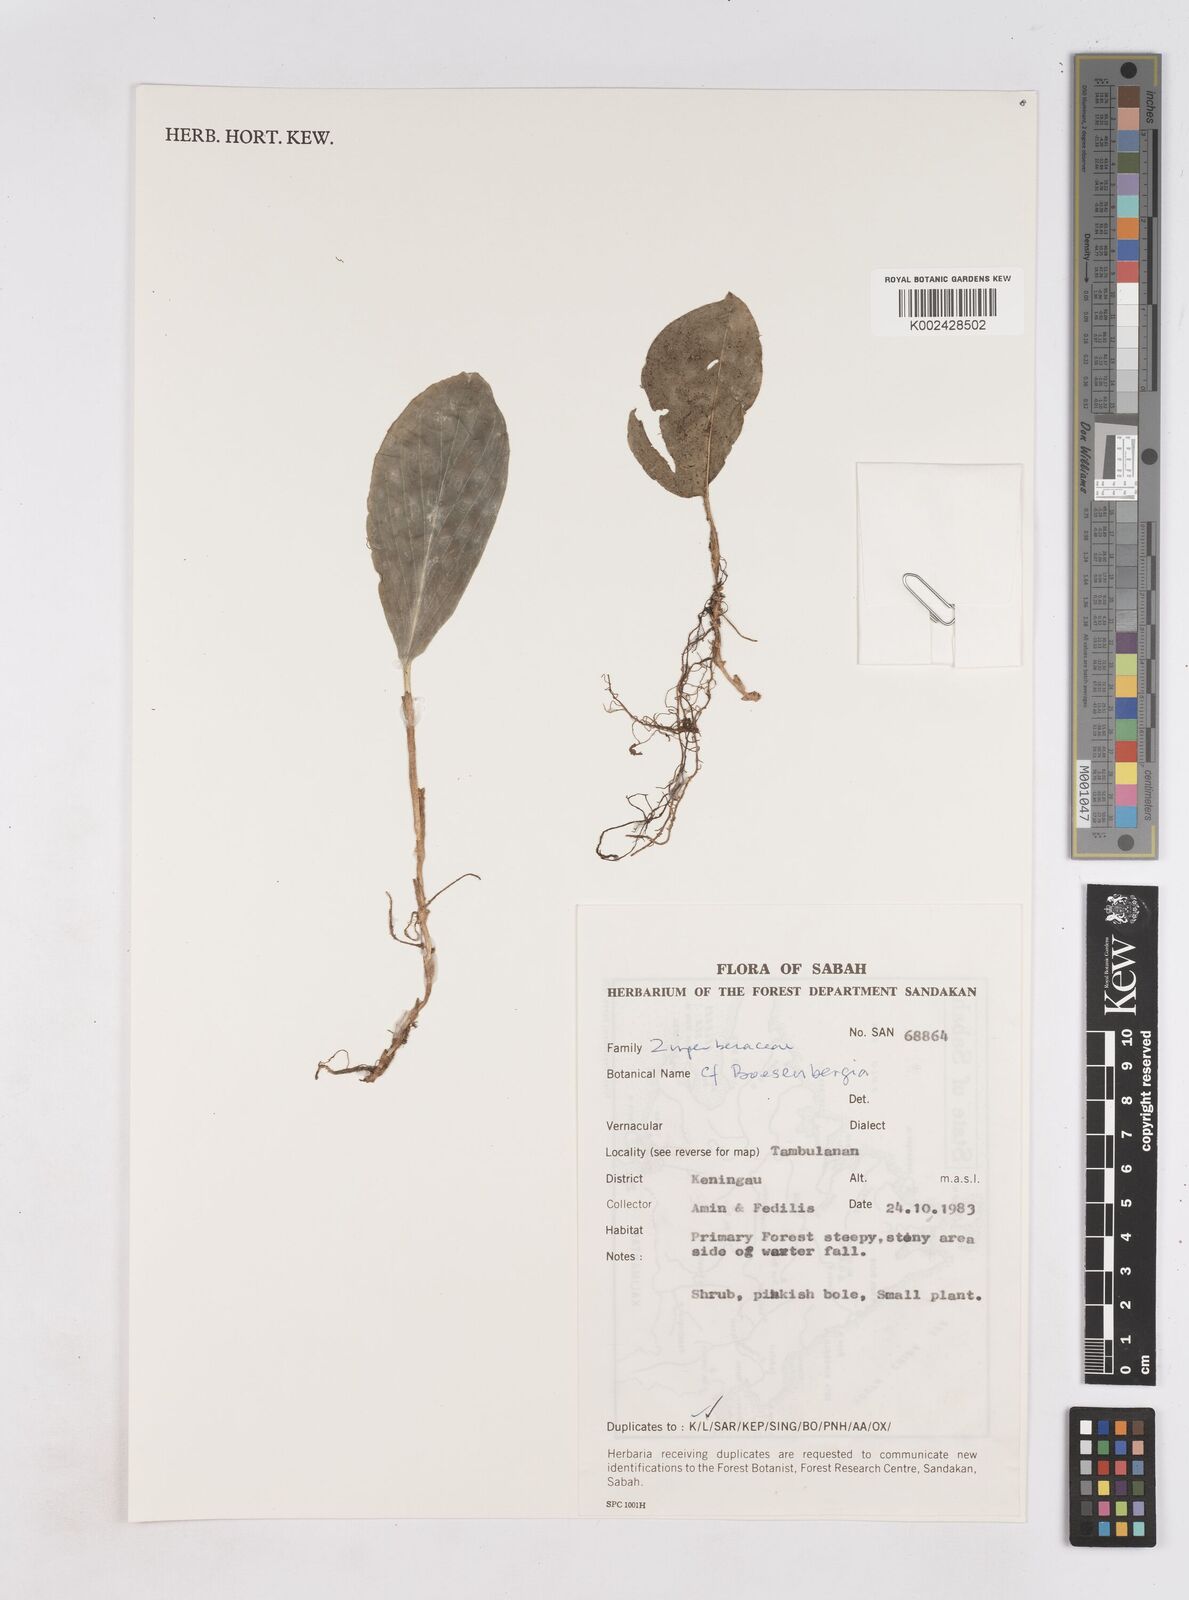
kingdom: Plantae
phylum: Tracheophyta
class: Liliopsida
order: Zingiberales
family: Zingiberaceae
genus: Boesenbergia
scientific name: Boesenbergia
